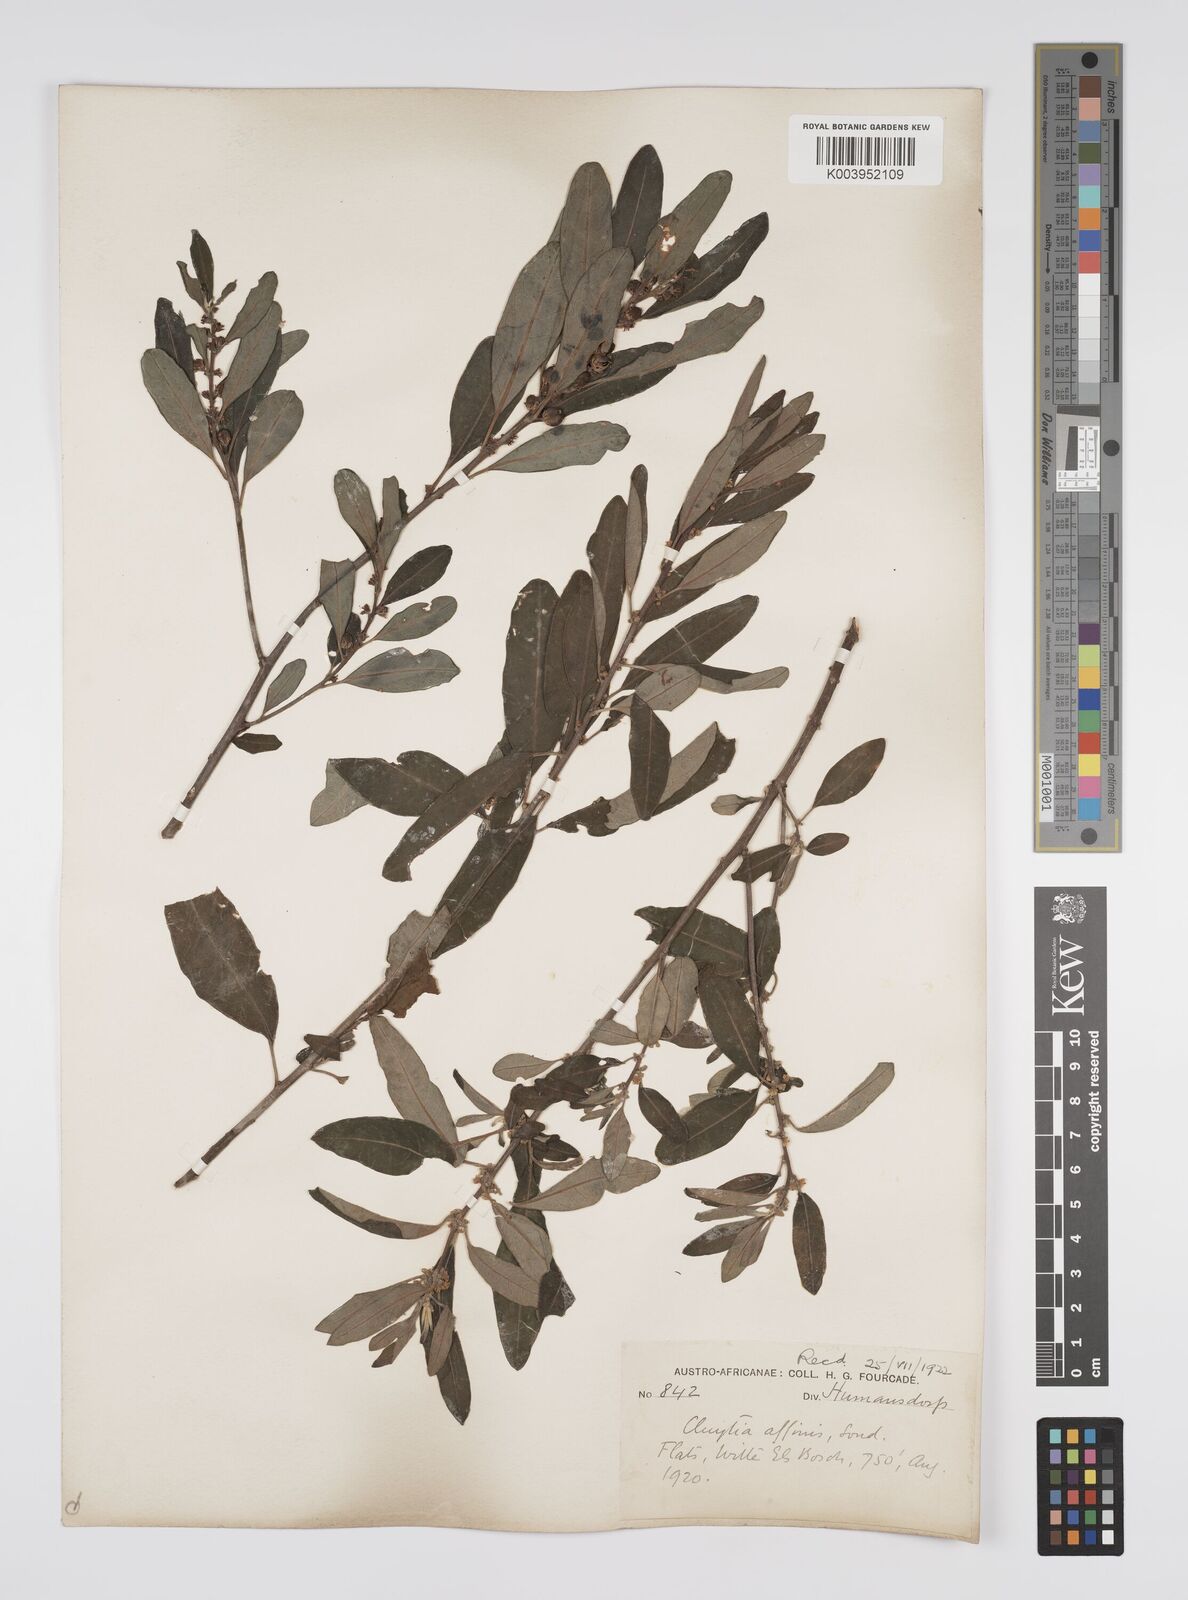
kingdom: Plantae
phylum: Tracheophyta
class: Magnoliopsida
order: Malpighiales
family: Peraceae
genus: Clutia
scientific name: Clutia affinis
